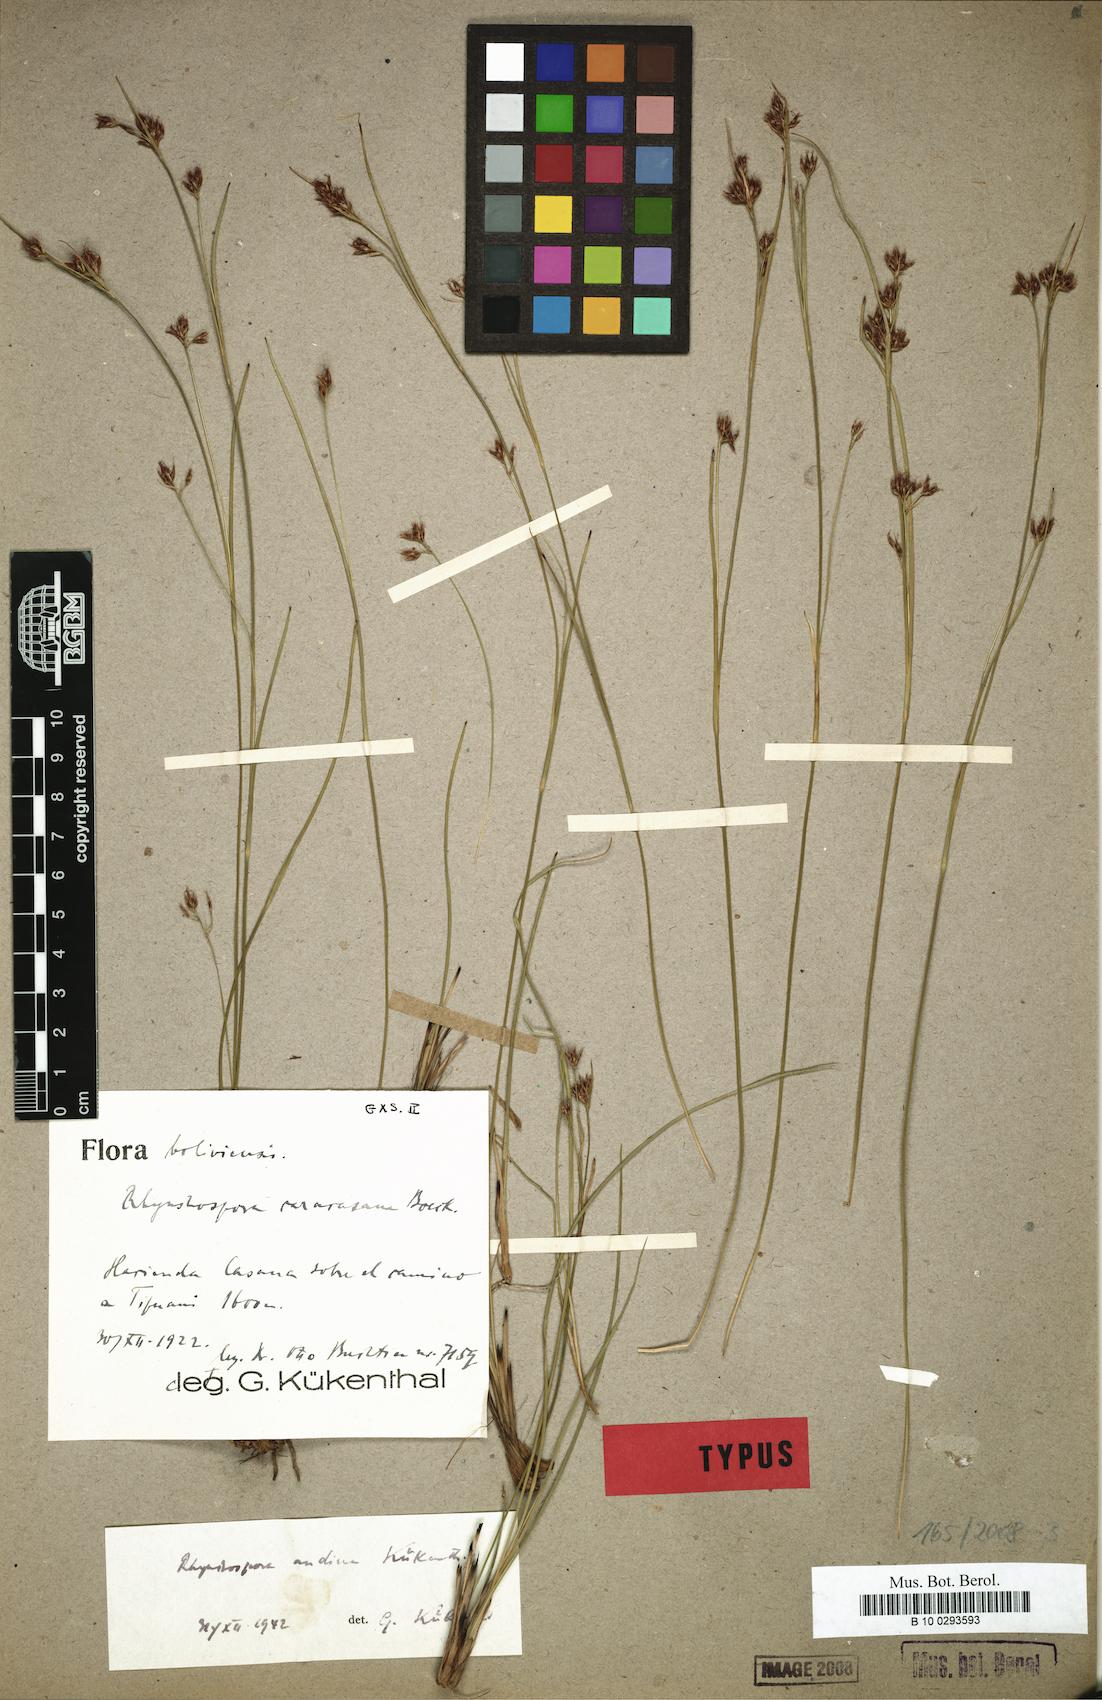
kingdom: Plantae
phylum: Tracheophyta
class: Liliopsida
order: Poales
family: Cyperaceae
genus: Rhynchospora
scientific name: Rhynchospora caracasana
